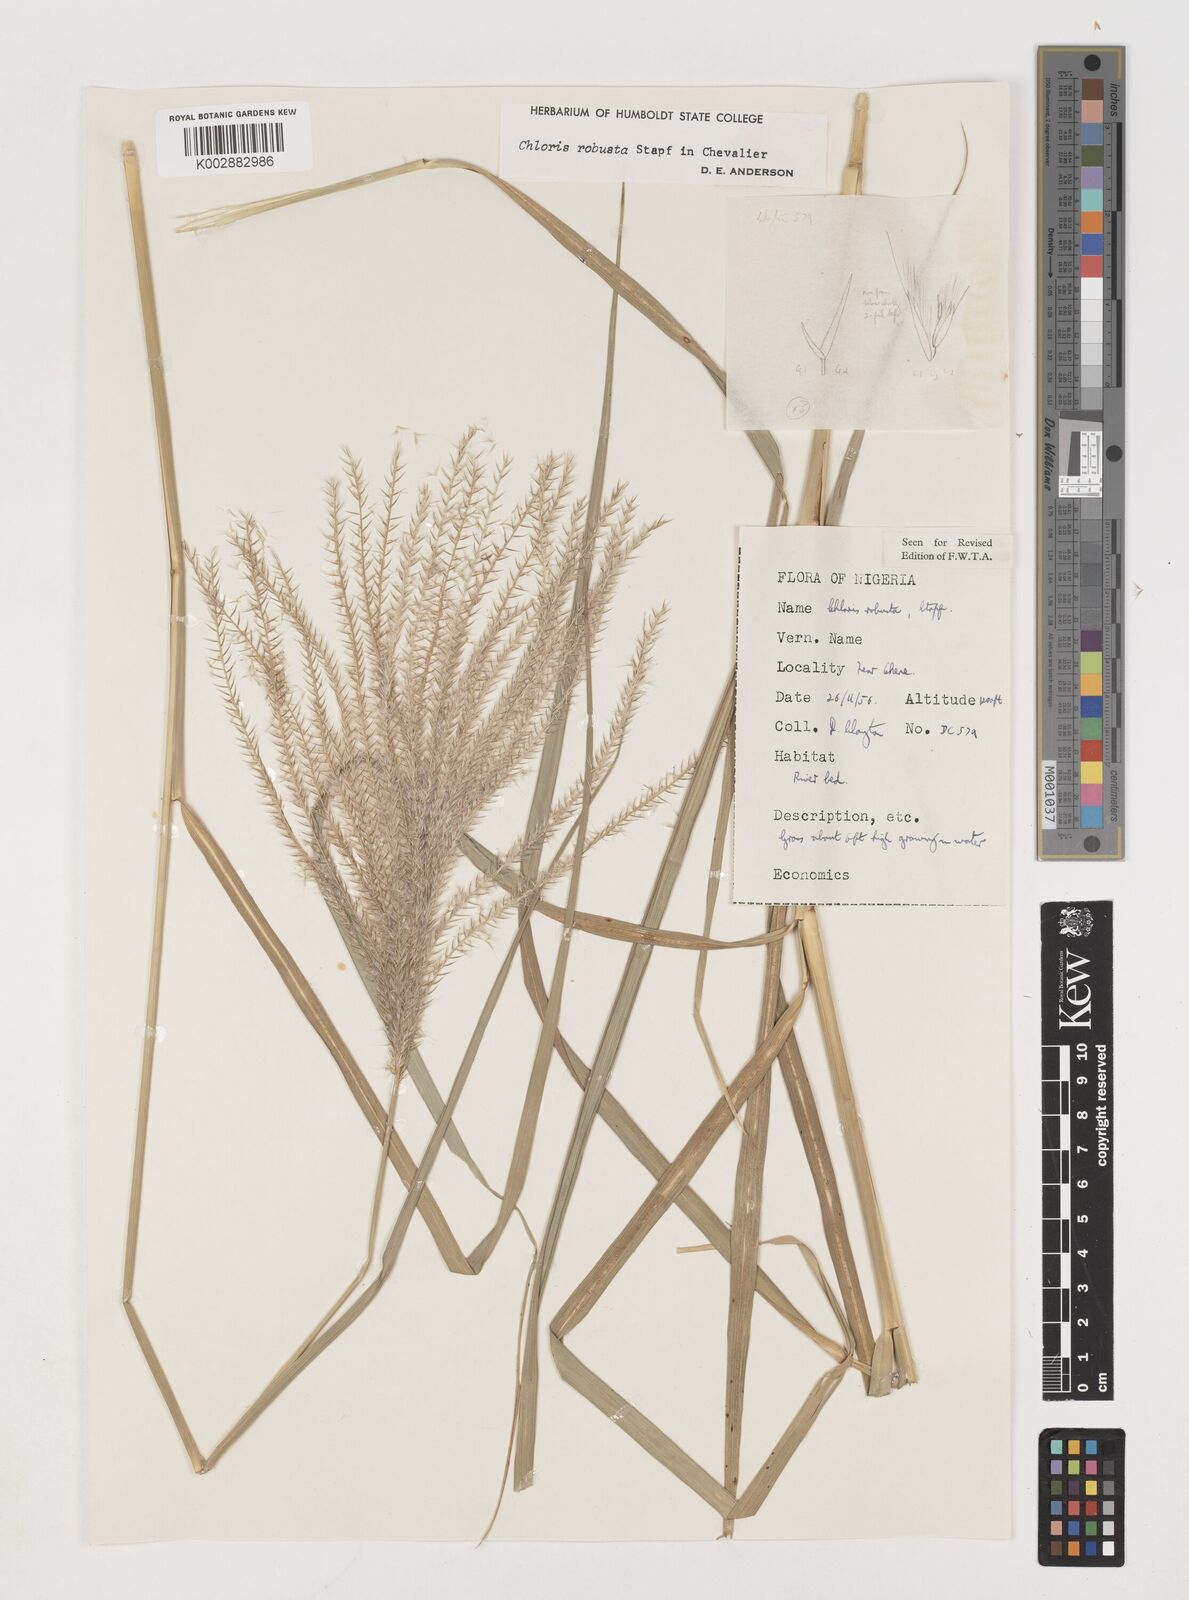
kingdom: Plantae
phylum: Tracheophyta
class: Liliopsida
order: Poales
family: Poaceae
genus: Chloris
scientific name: Chloris robusta
